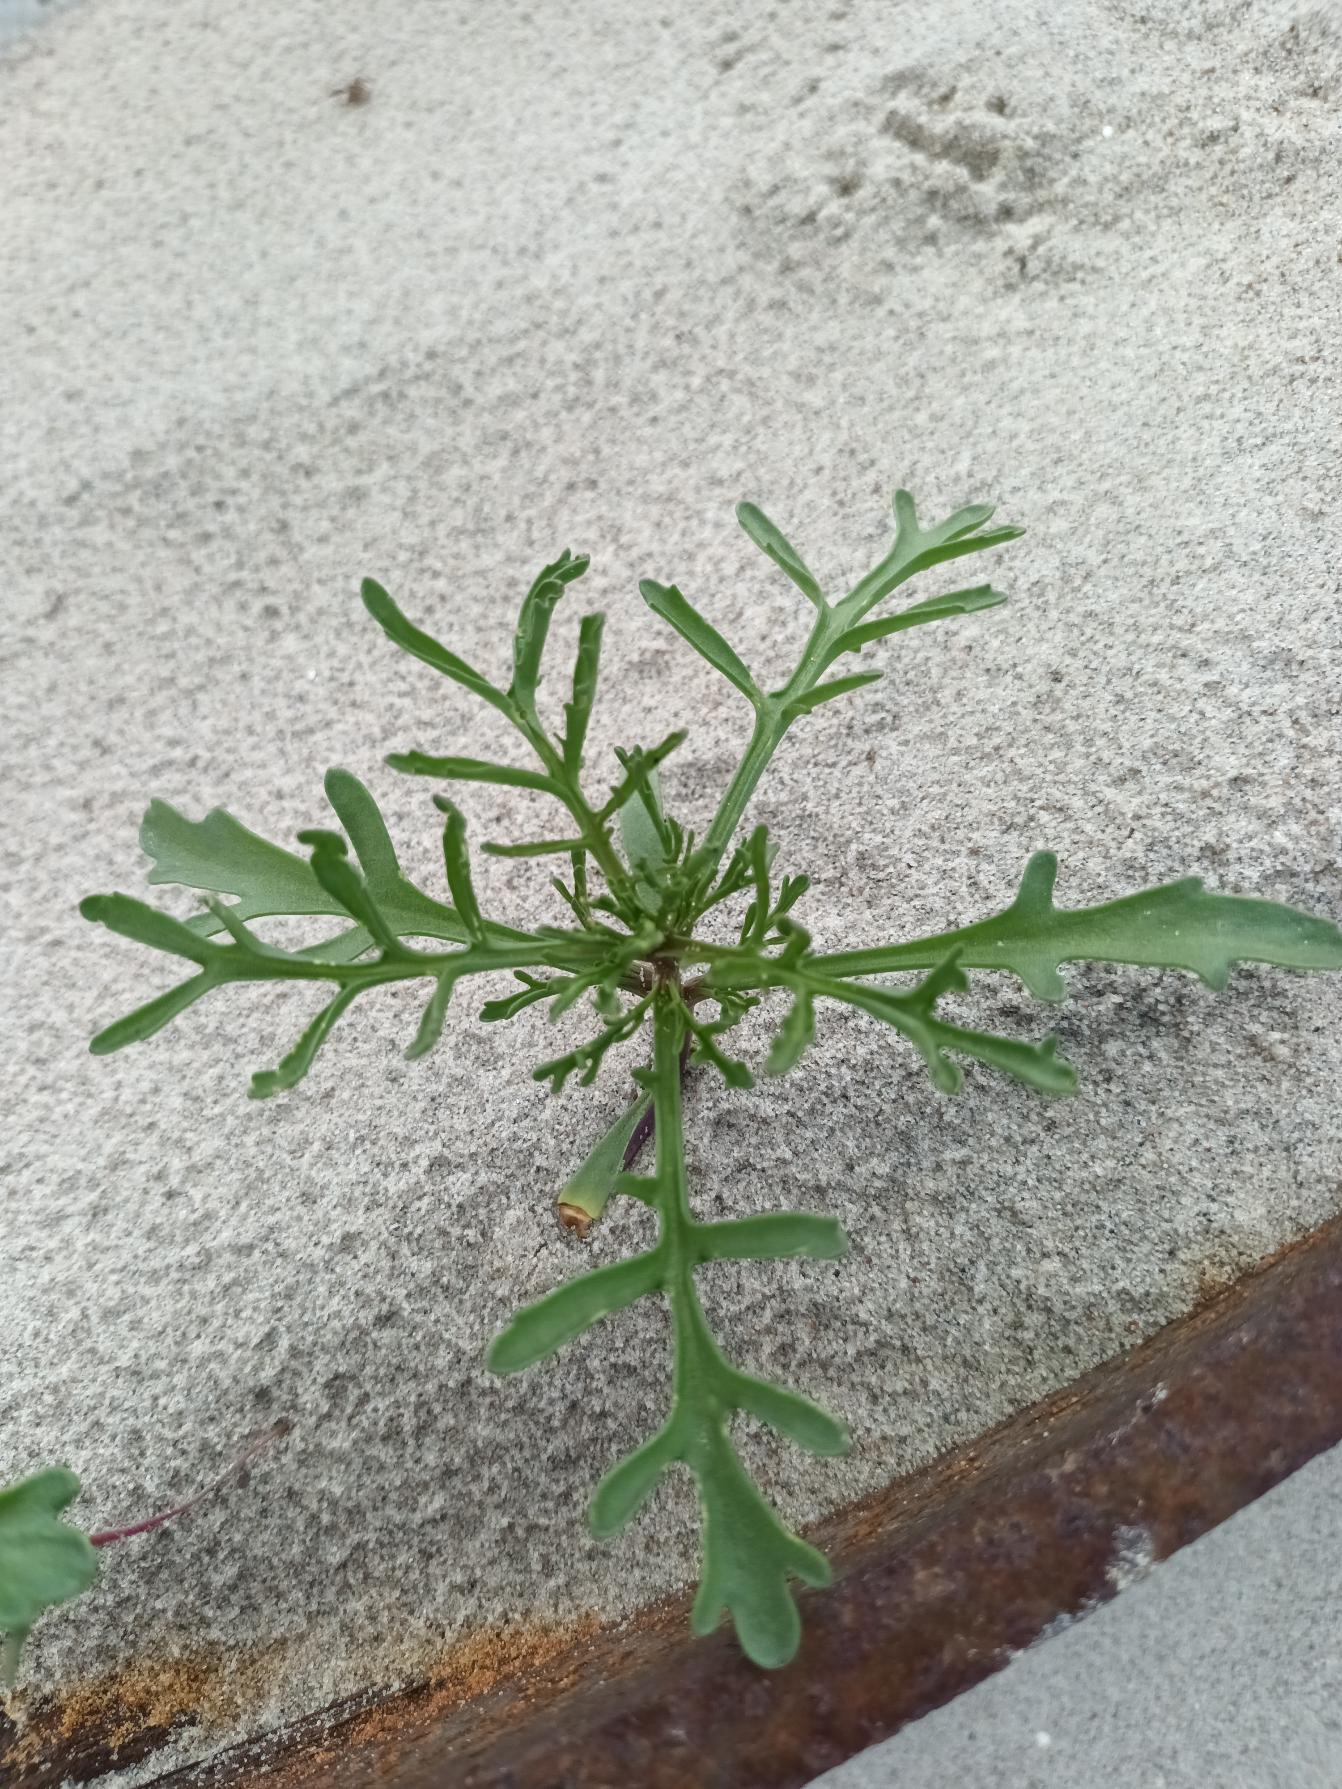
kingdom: Plantae
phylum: Tracheophyta
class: Magnoliopsida
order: Brassicales
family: Brassicaceae
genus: Cakile
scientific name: Cakile maritima
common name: Strandsennep
